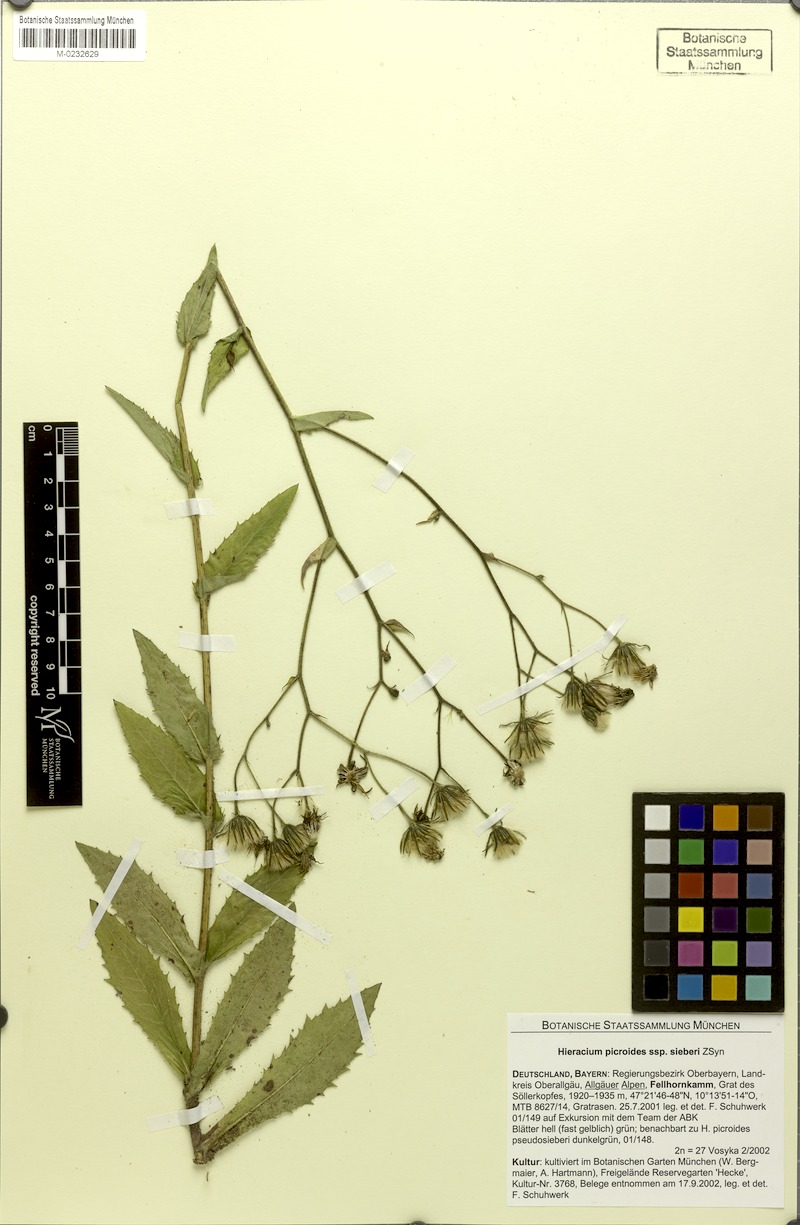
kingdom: Plantae
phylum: Tracheophyta
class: Magnoliopsida
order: Asterales
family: Asteraceae
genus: Hieracium
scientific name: Hieracium picroides
